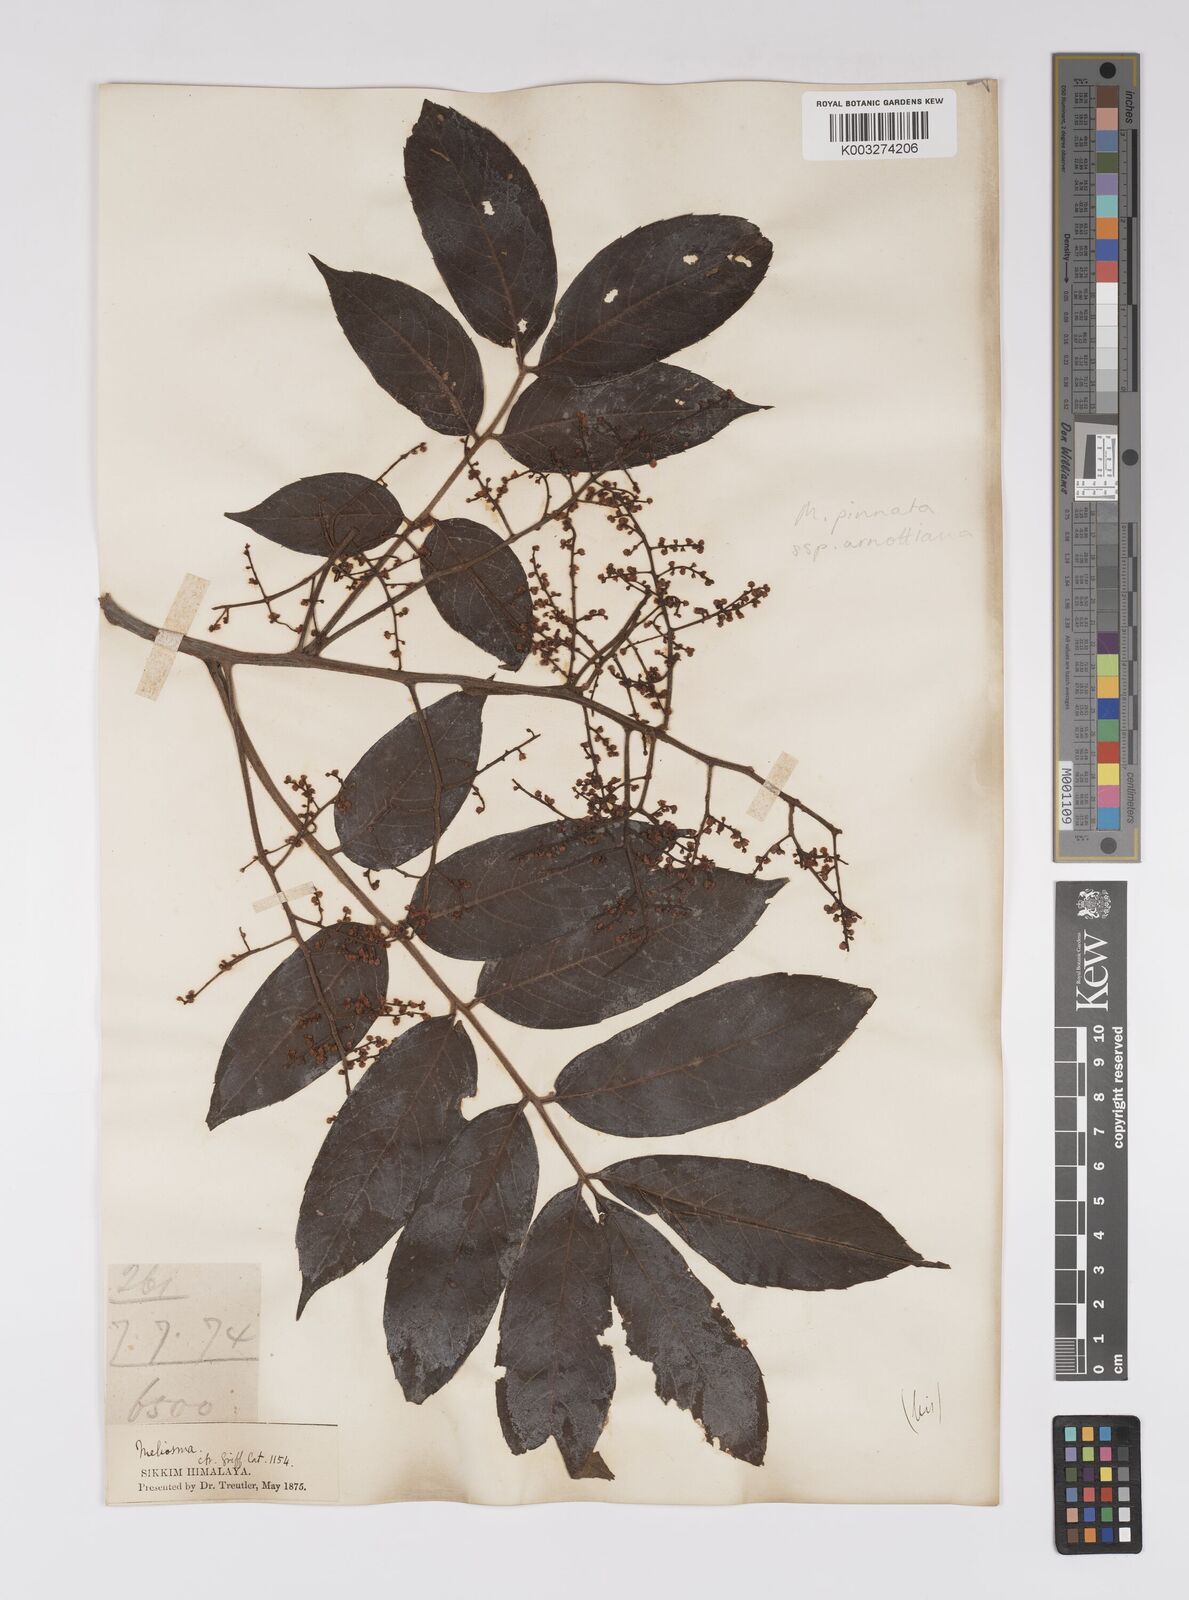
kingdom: Plantae
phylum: Tracheophyta
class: Magnoliopsida
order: Proteales
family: Sabiaceae
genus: Meliosma
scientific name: Meliosma rhoifolia
